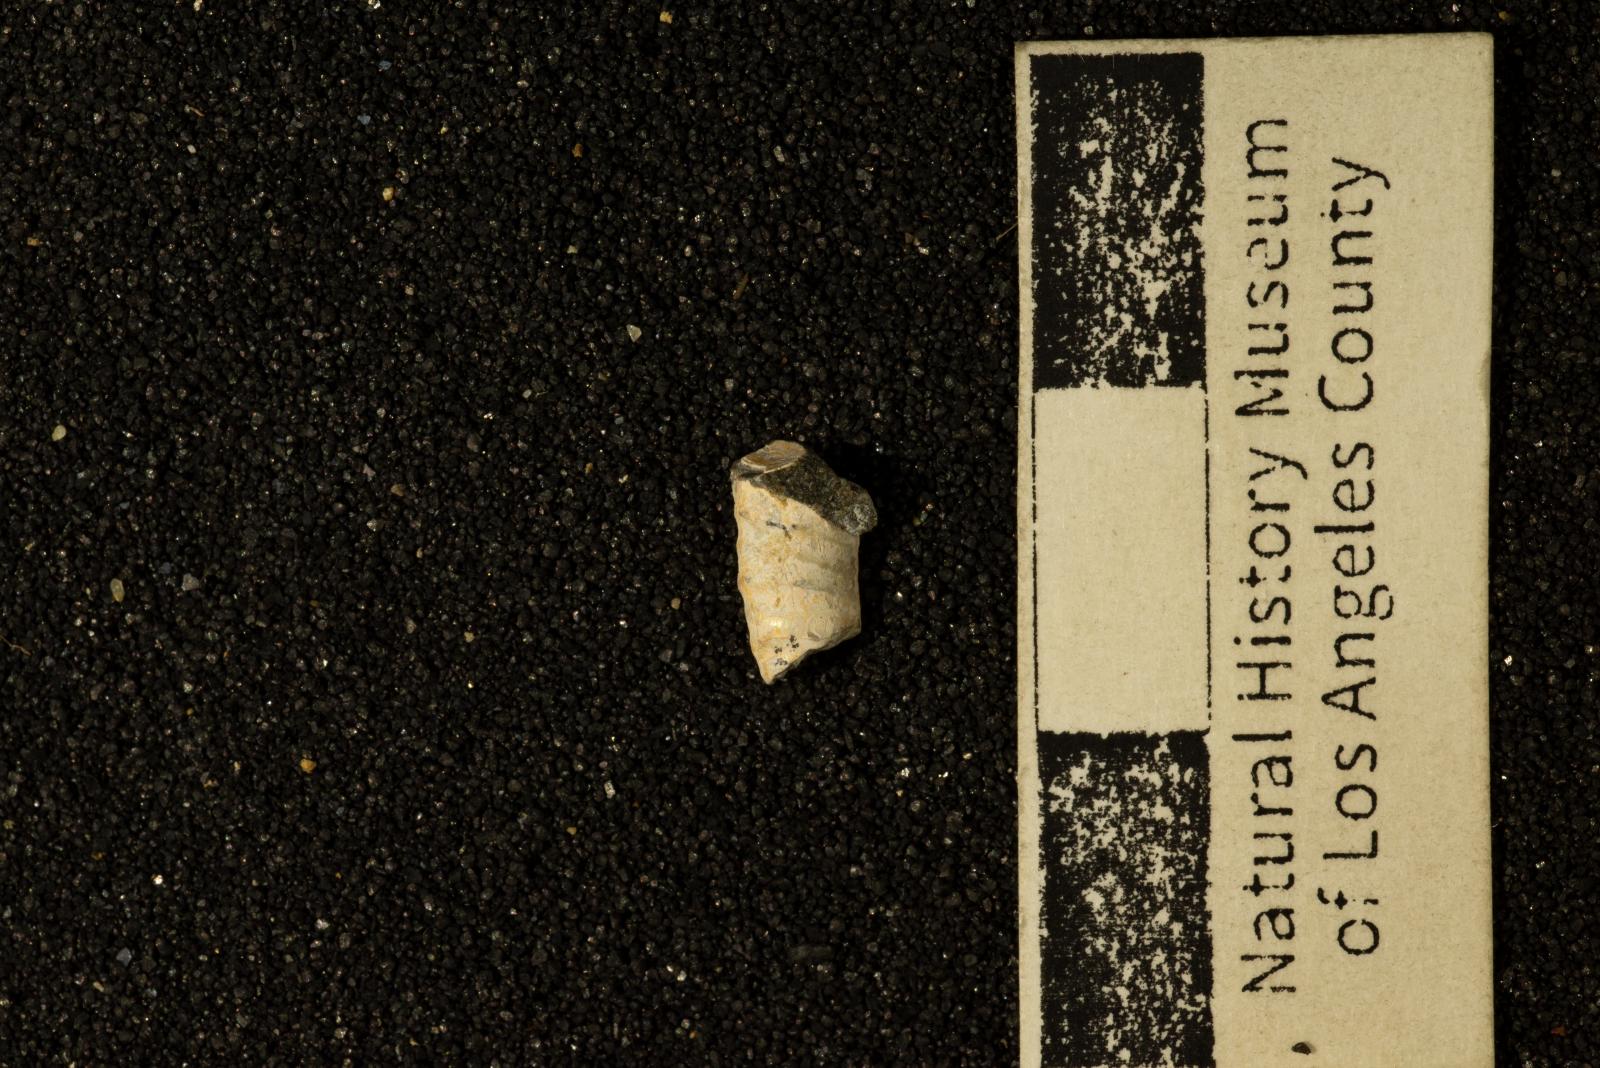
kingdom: Animalia
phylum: Mollusca
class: Cephalopoda
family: Diplomoceratidae
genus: Glyptoxoceras
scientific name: Glyptoxoceras
